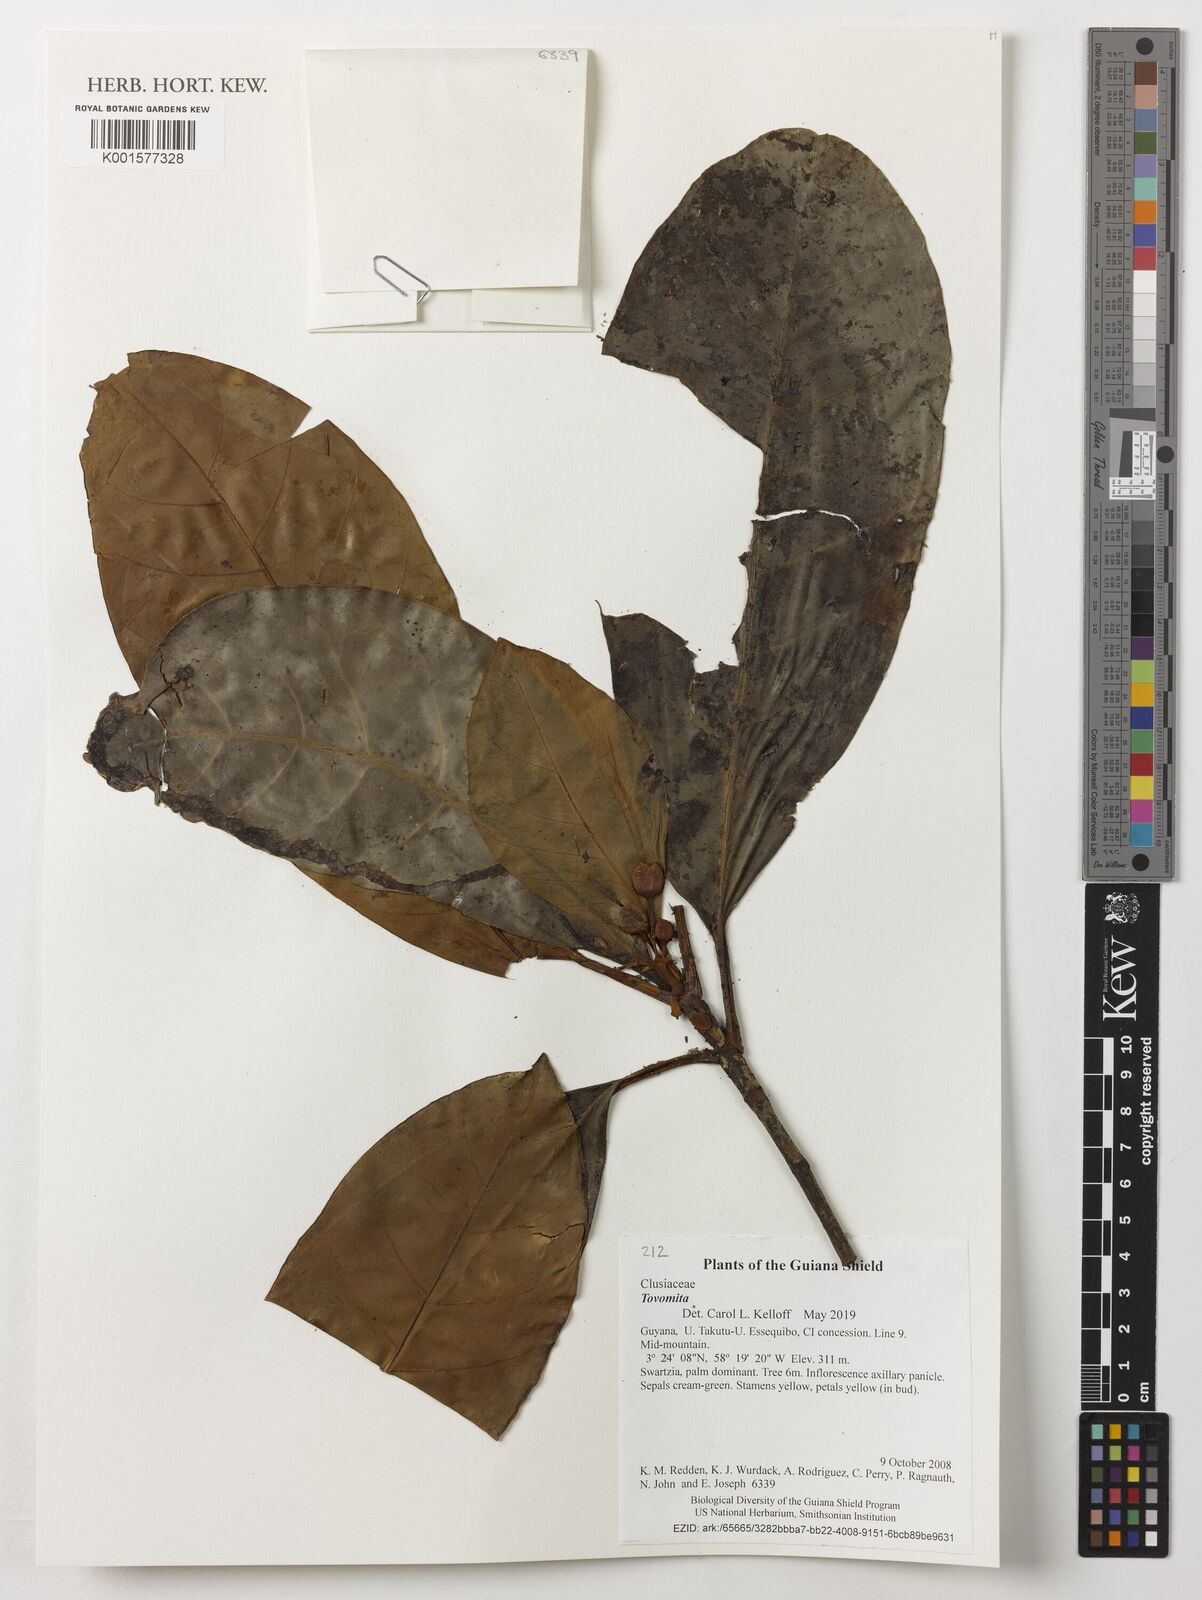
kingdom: Plantae
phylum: Tracheophyta
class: Magnoliopsida
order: Malpighiales
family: Clusiaceae
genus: Tovomita
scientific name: Tovomita
